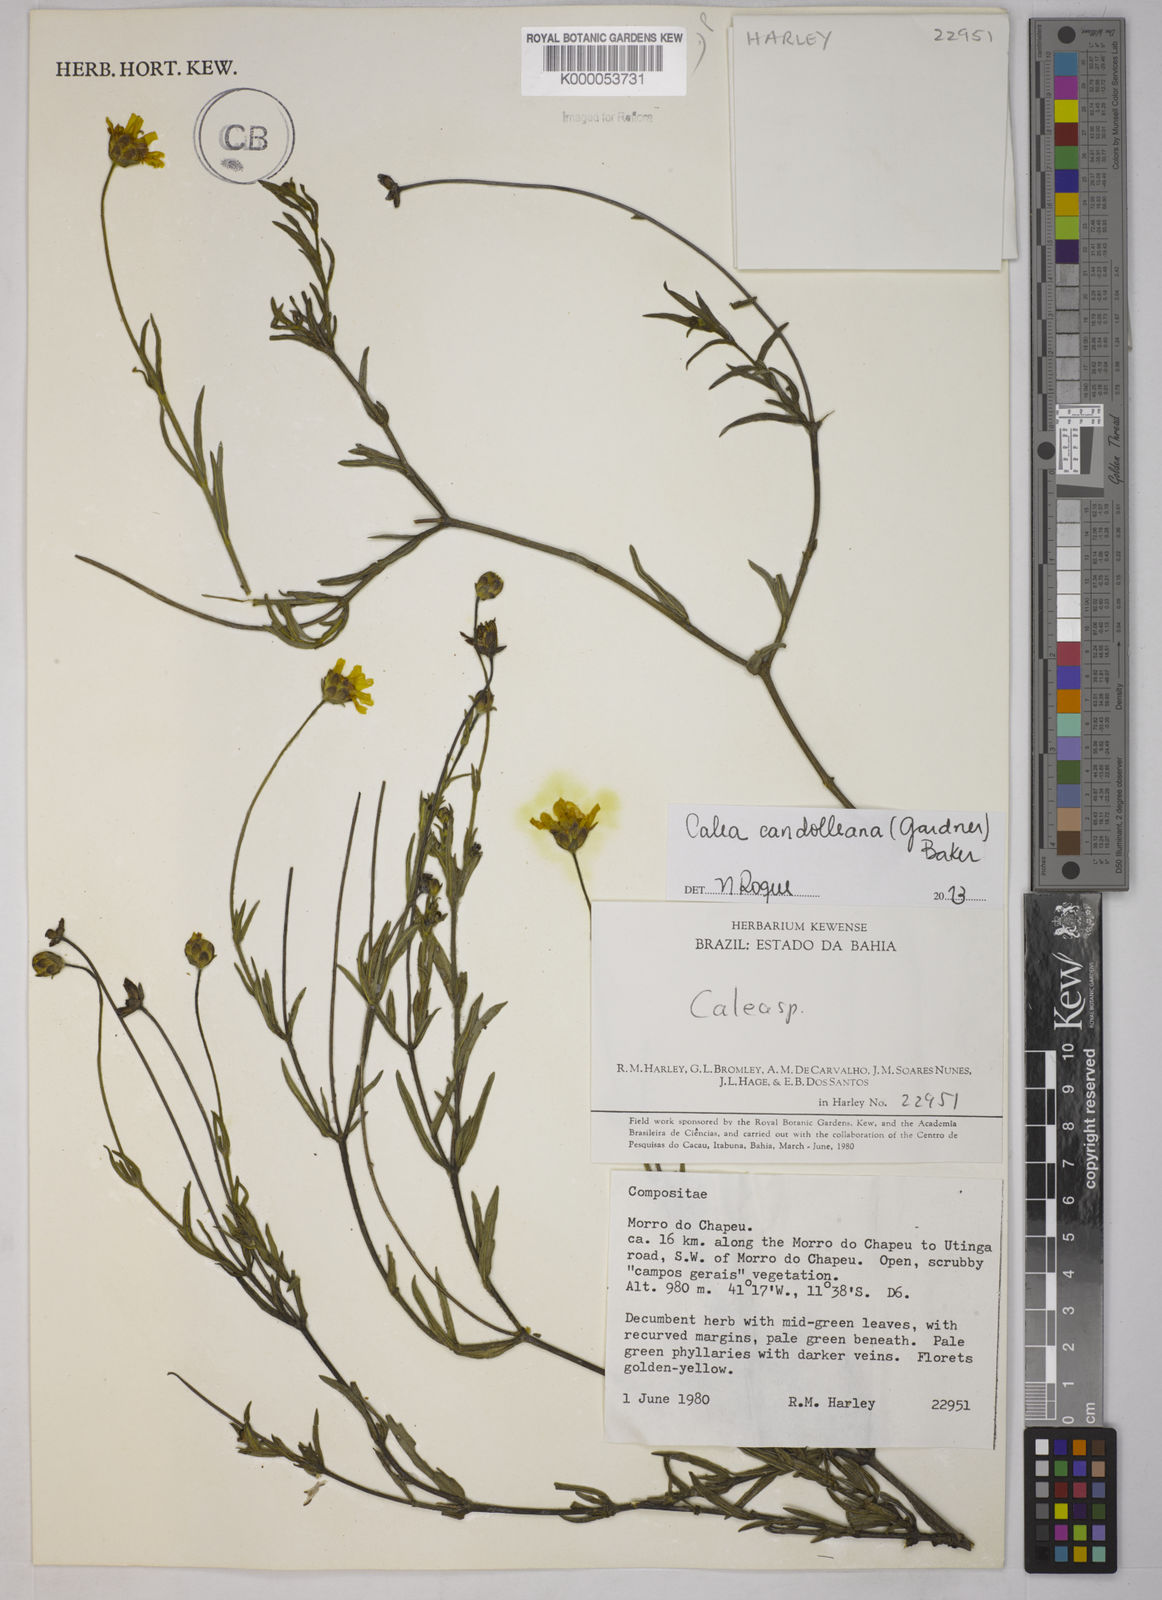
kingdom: Plantae
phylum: Tracheophyta
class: Magnoliopsida
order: Asterales
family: Asteraceae
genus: Calea
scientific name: Calea
